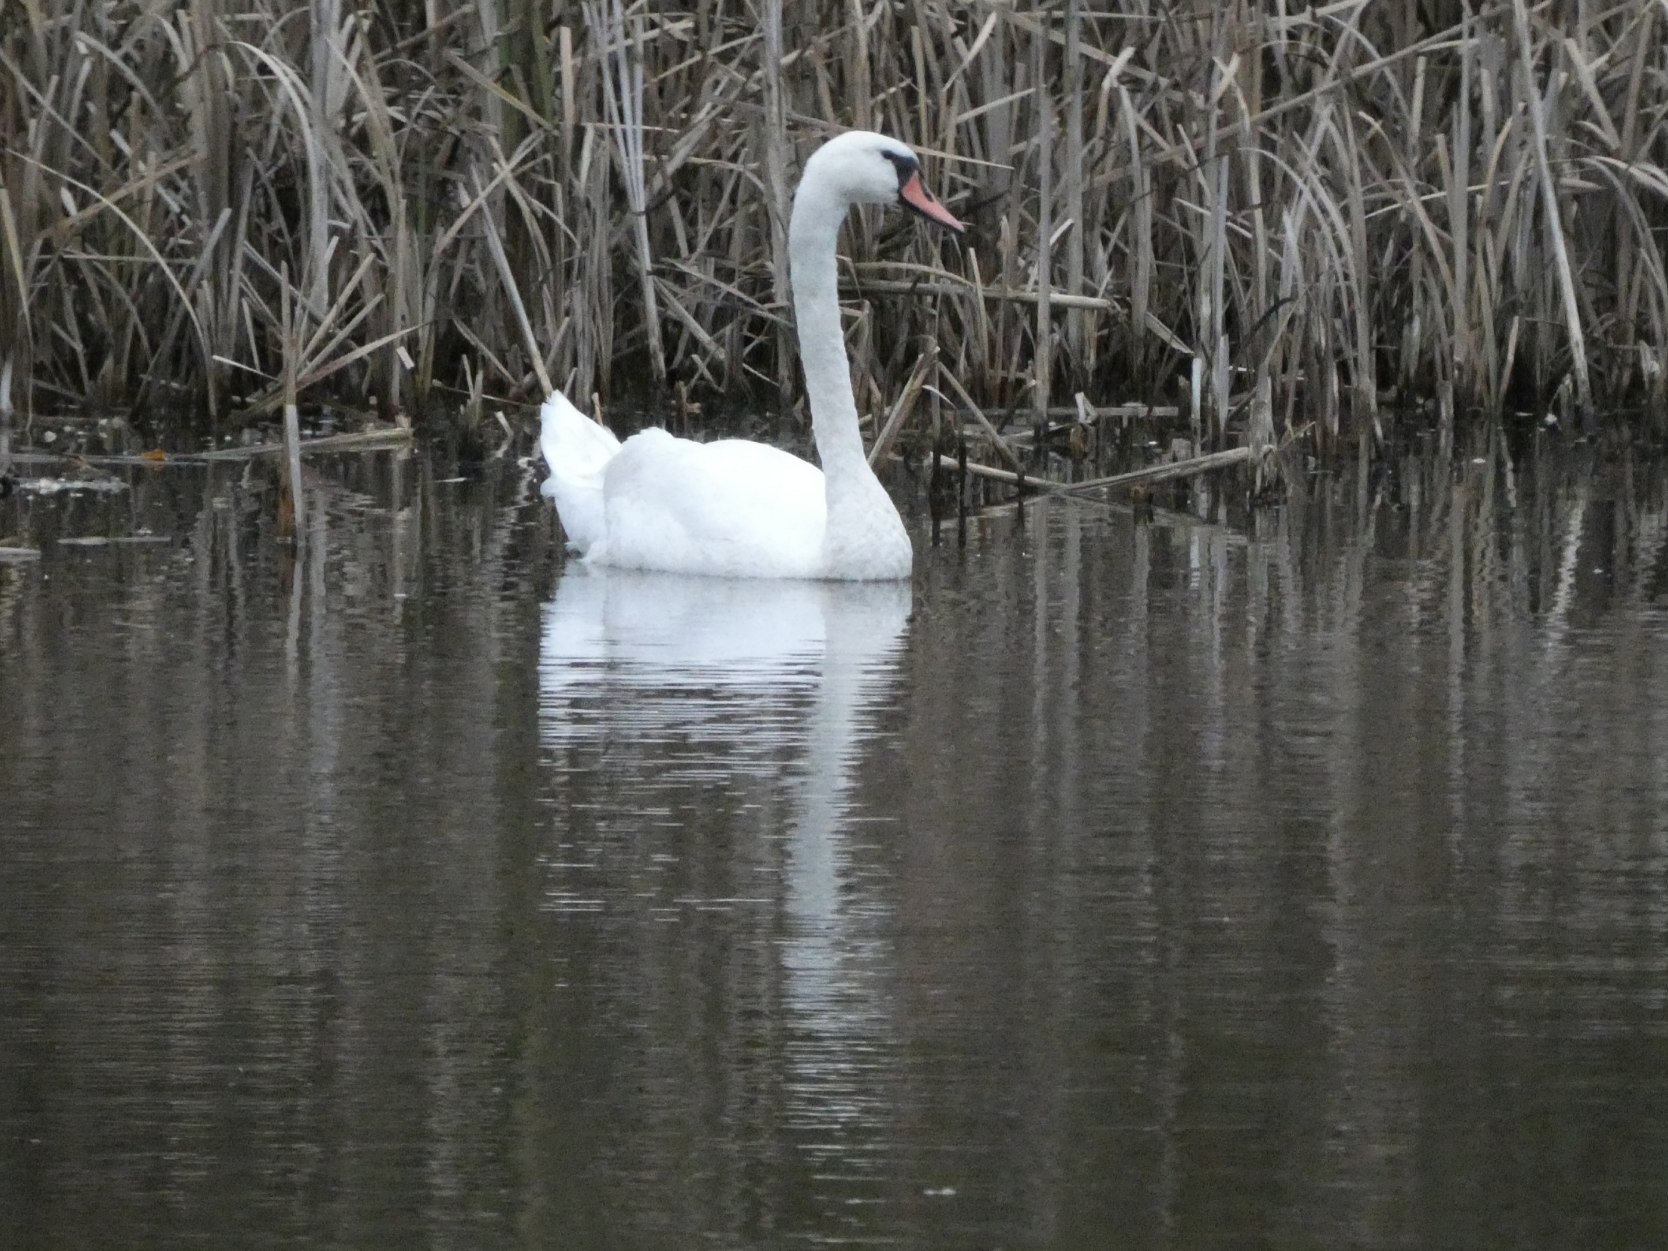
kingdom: Animalia
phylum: Chordata
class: Aves
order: Anseriformes
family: Anatidae
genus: Cygnus
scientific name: Cygnus olor
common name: Knopsvane
